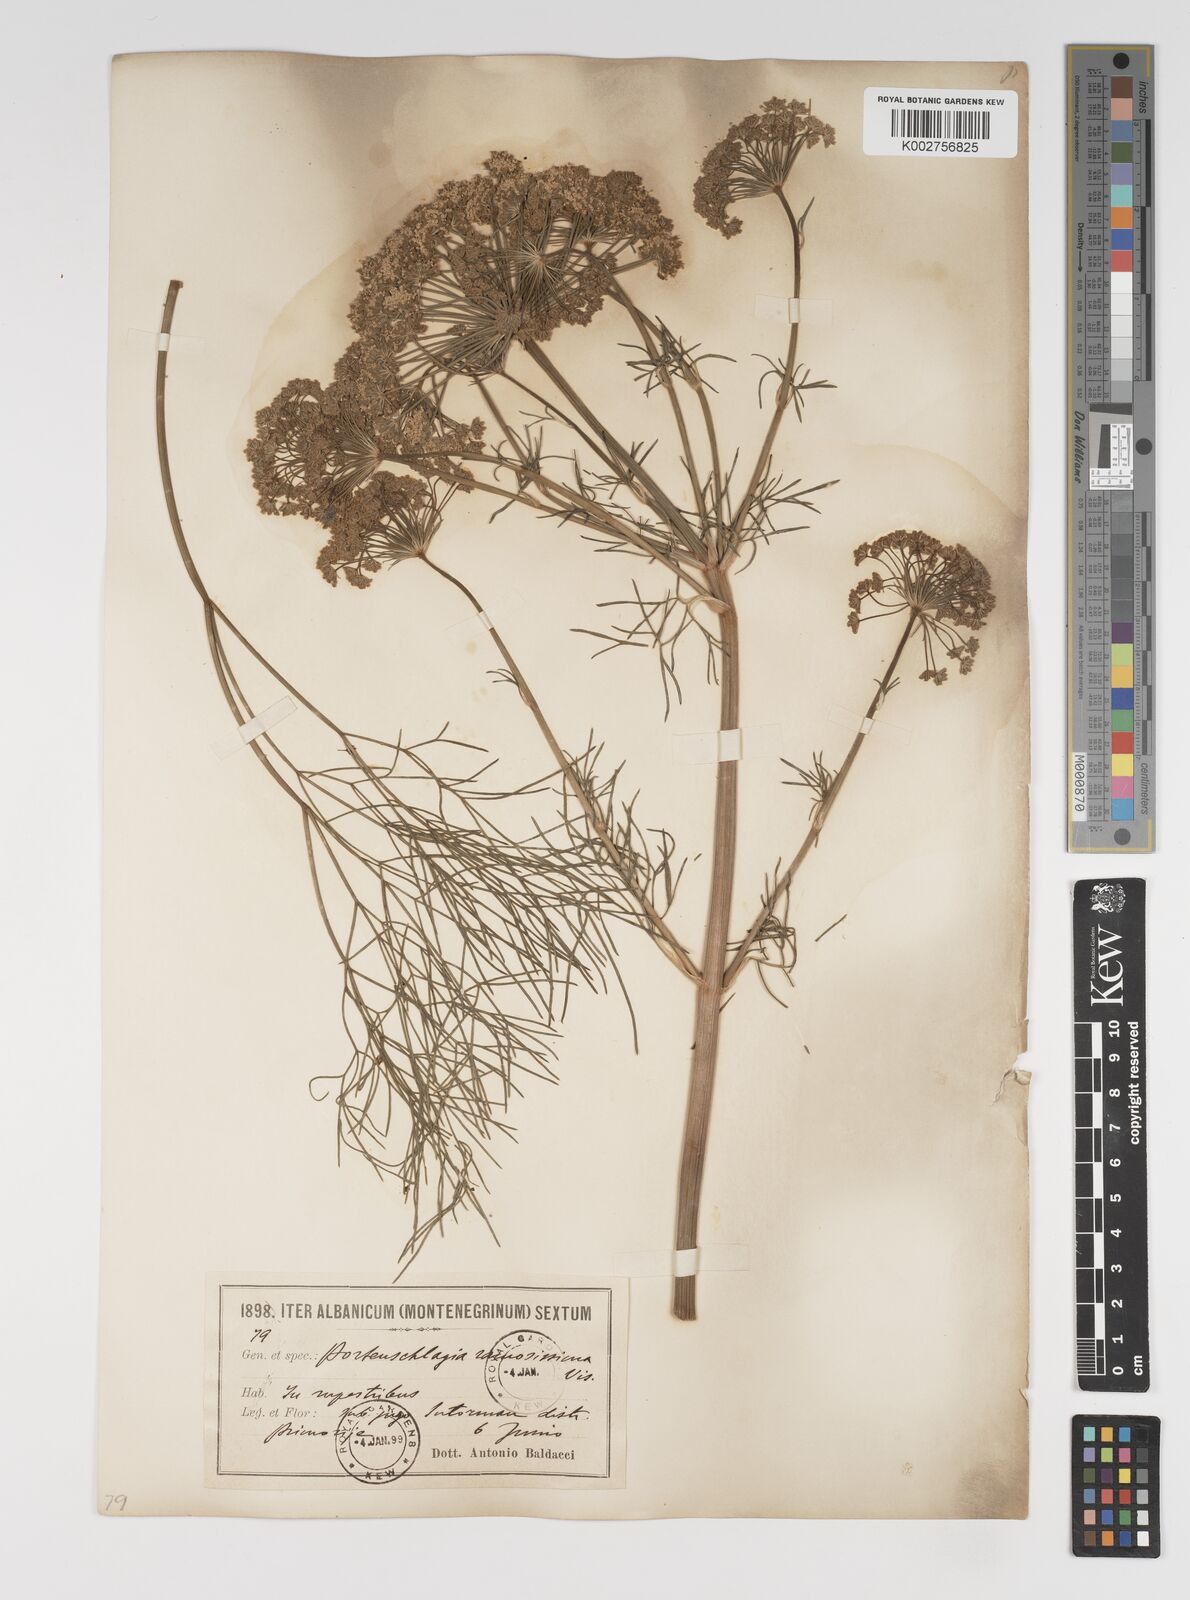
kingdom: Plantae
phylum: Tracheophyta
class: Magnoliopsida
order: Apiales
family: Apiaceae
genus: Athamanta
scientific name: Athamanta ramosissima
